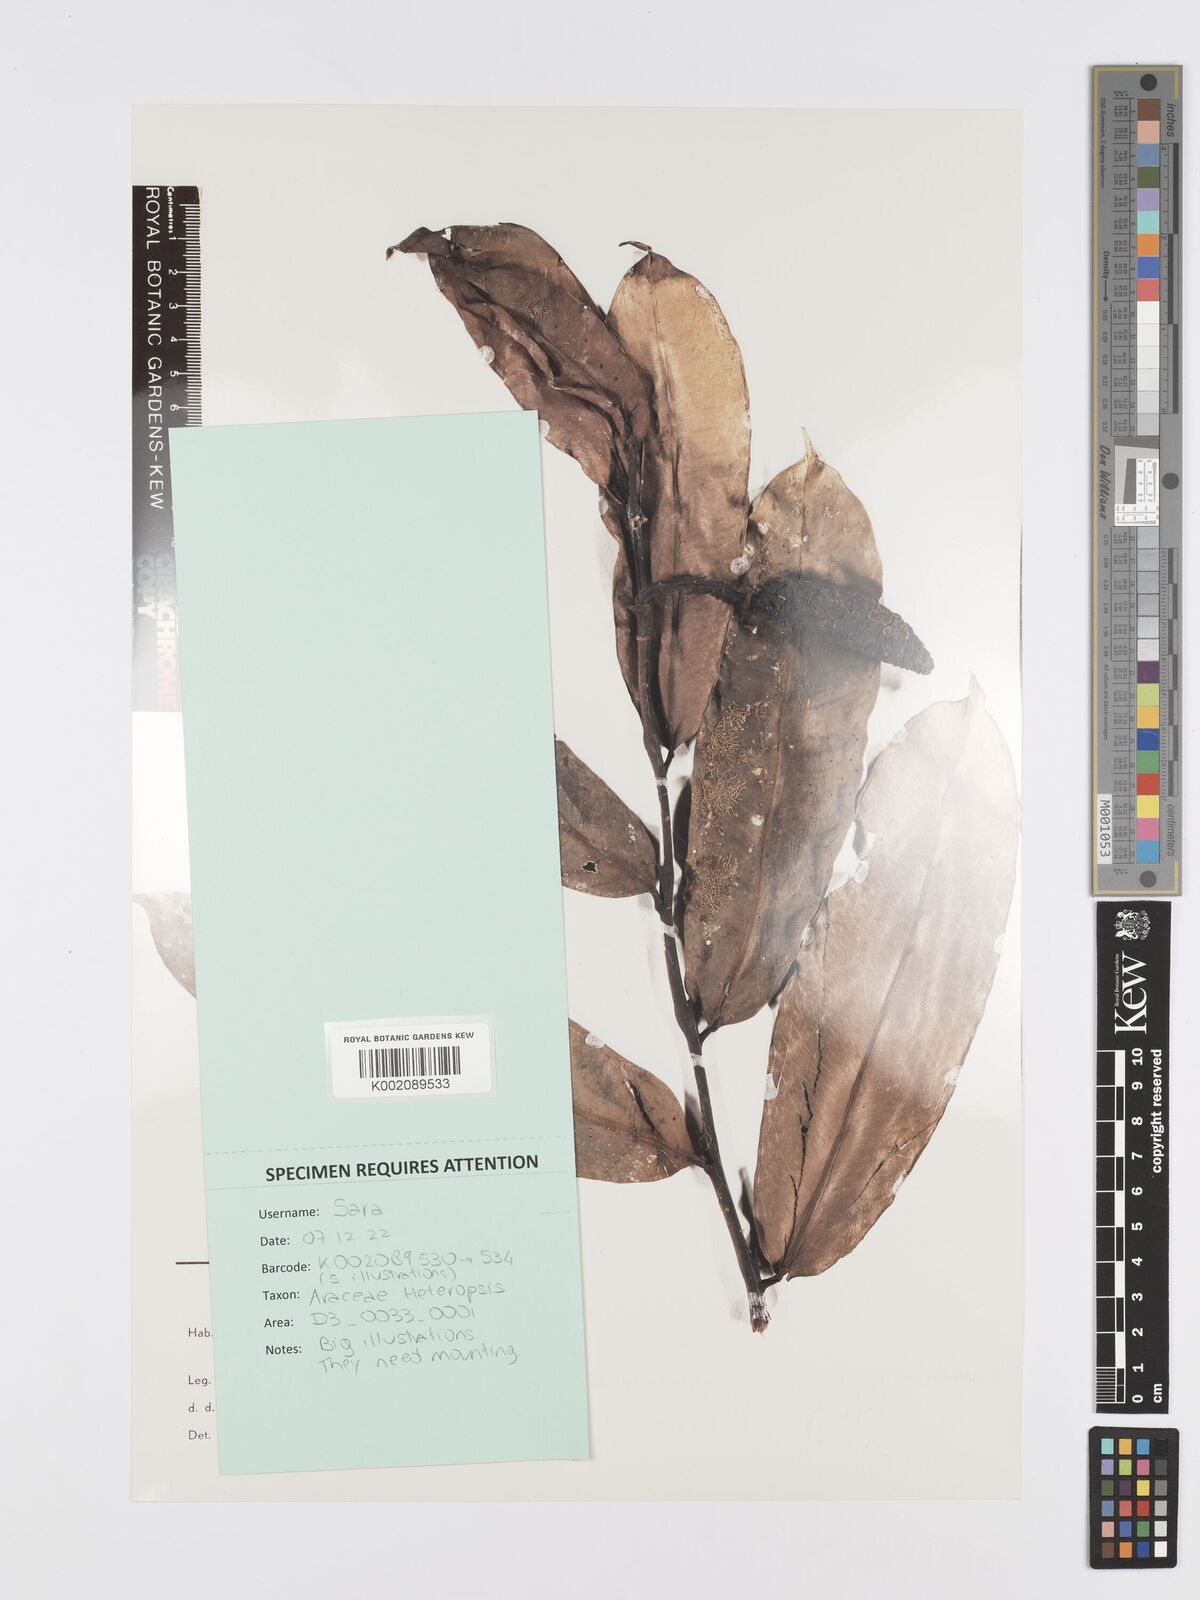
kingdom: Plantae
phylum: Tracheophyta
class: Liliopsida
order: Alismatales
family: Araceae
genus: Heteropsis
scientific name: Heteropsis flexuosa
